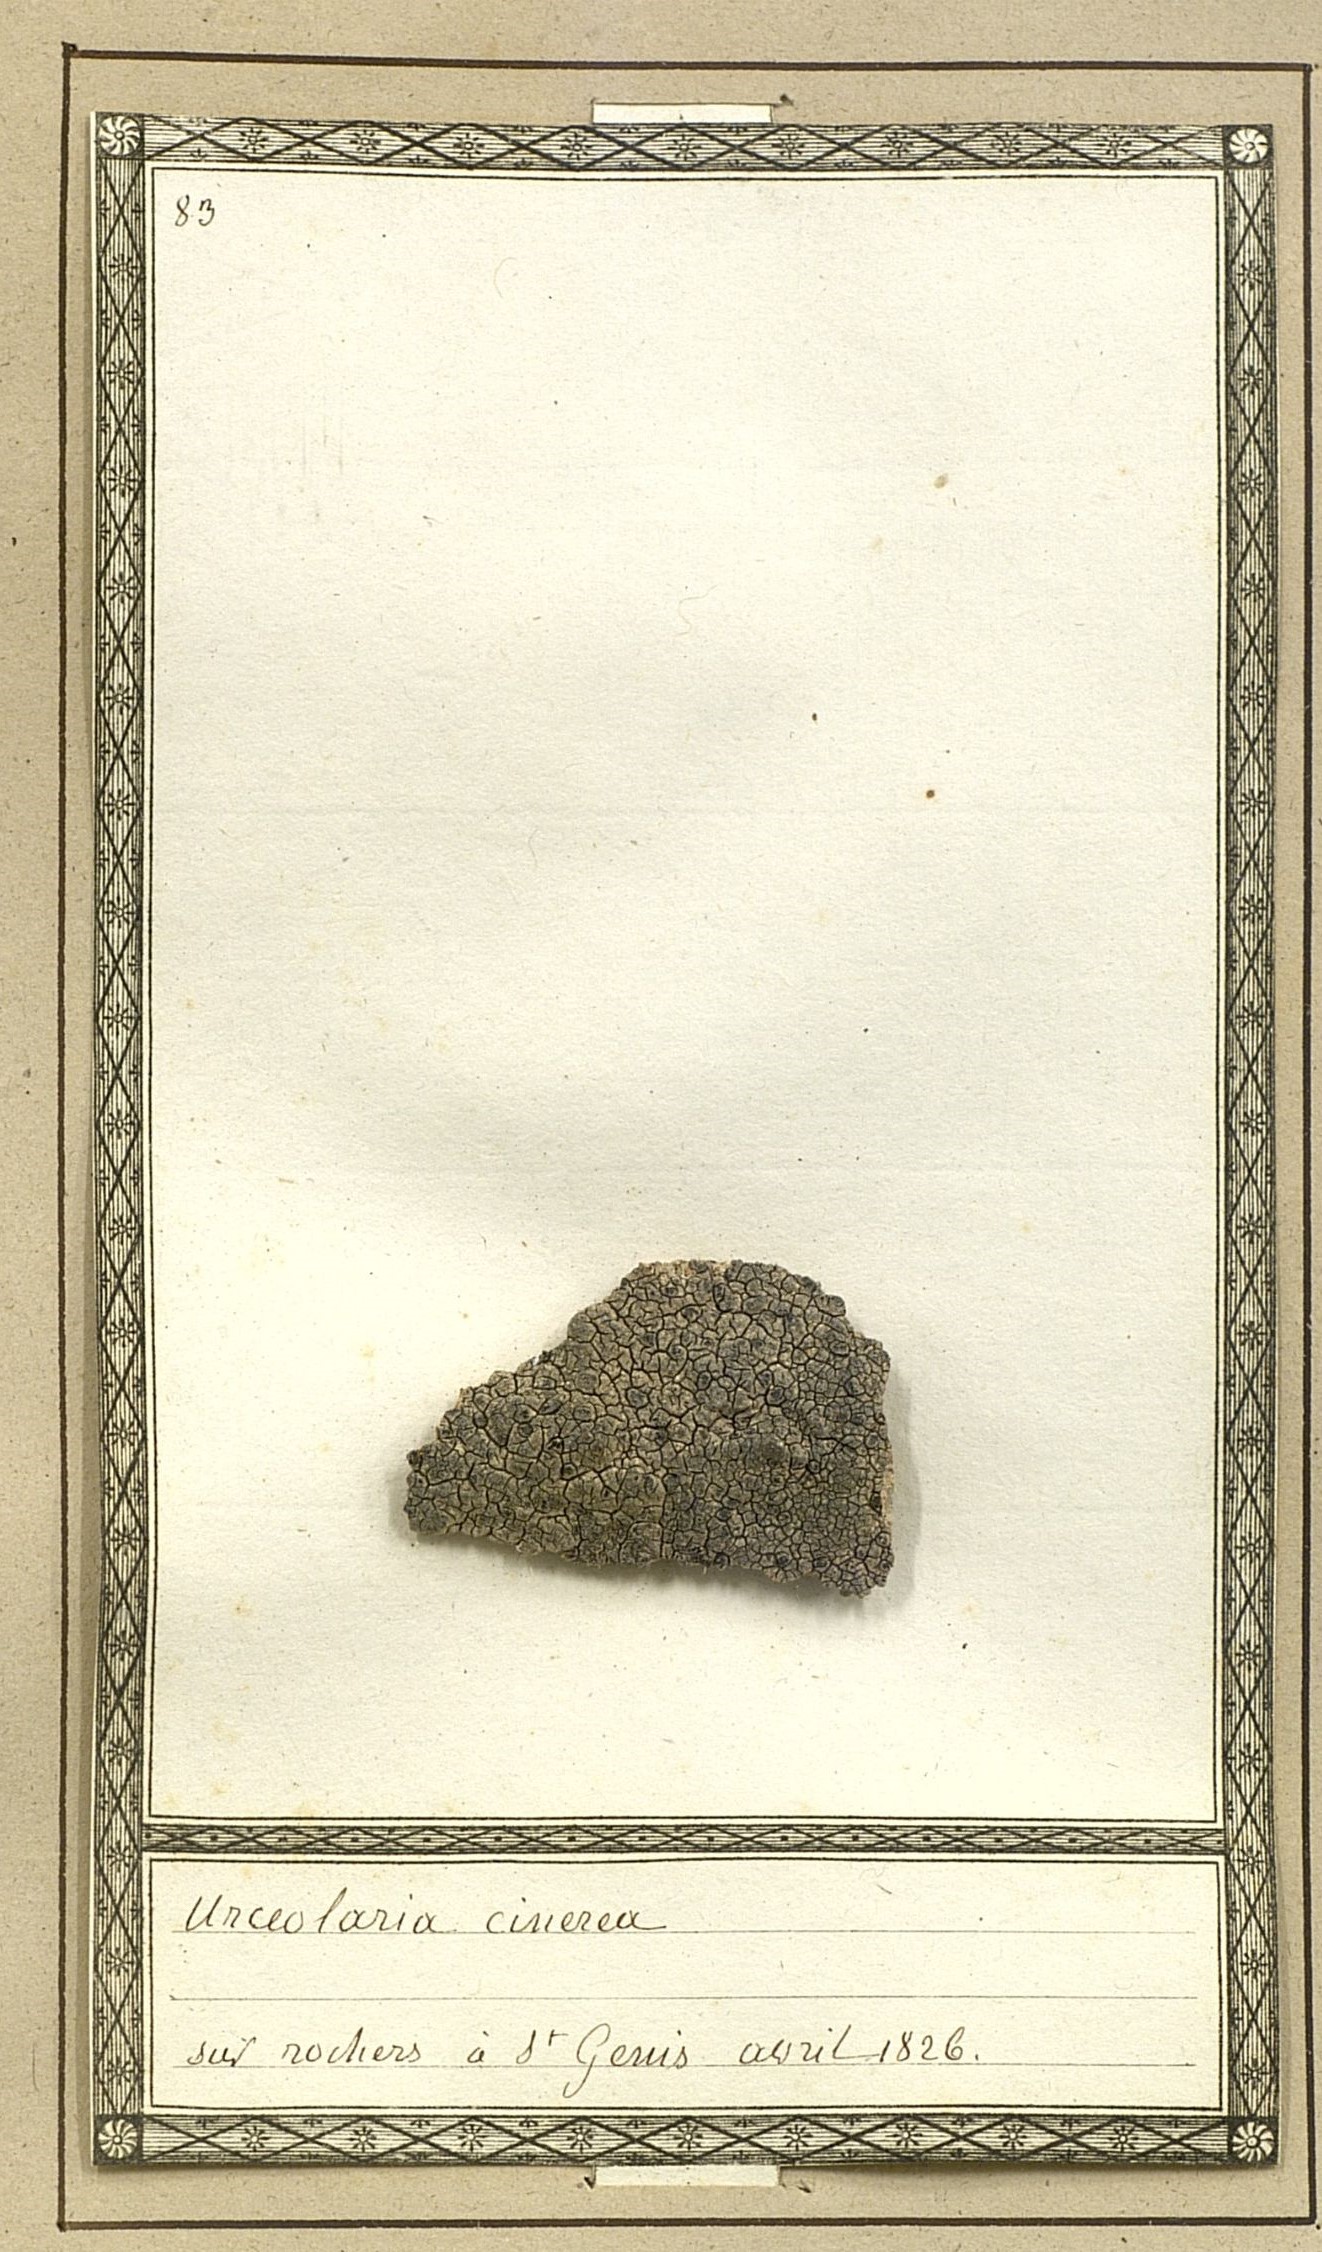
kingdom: Fungi
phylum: Ascomycota
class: Lecanoromycetes
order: Pertusariales
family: Megasporaceae
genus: Aspicilia
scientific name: Aspicilia cinerea
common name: Cinder lichen
